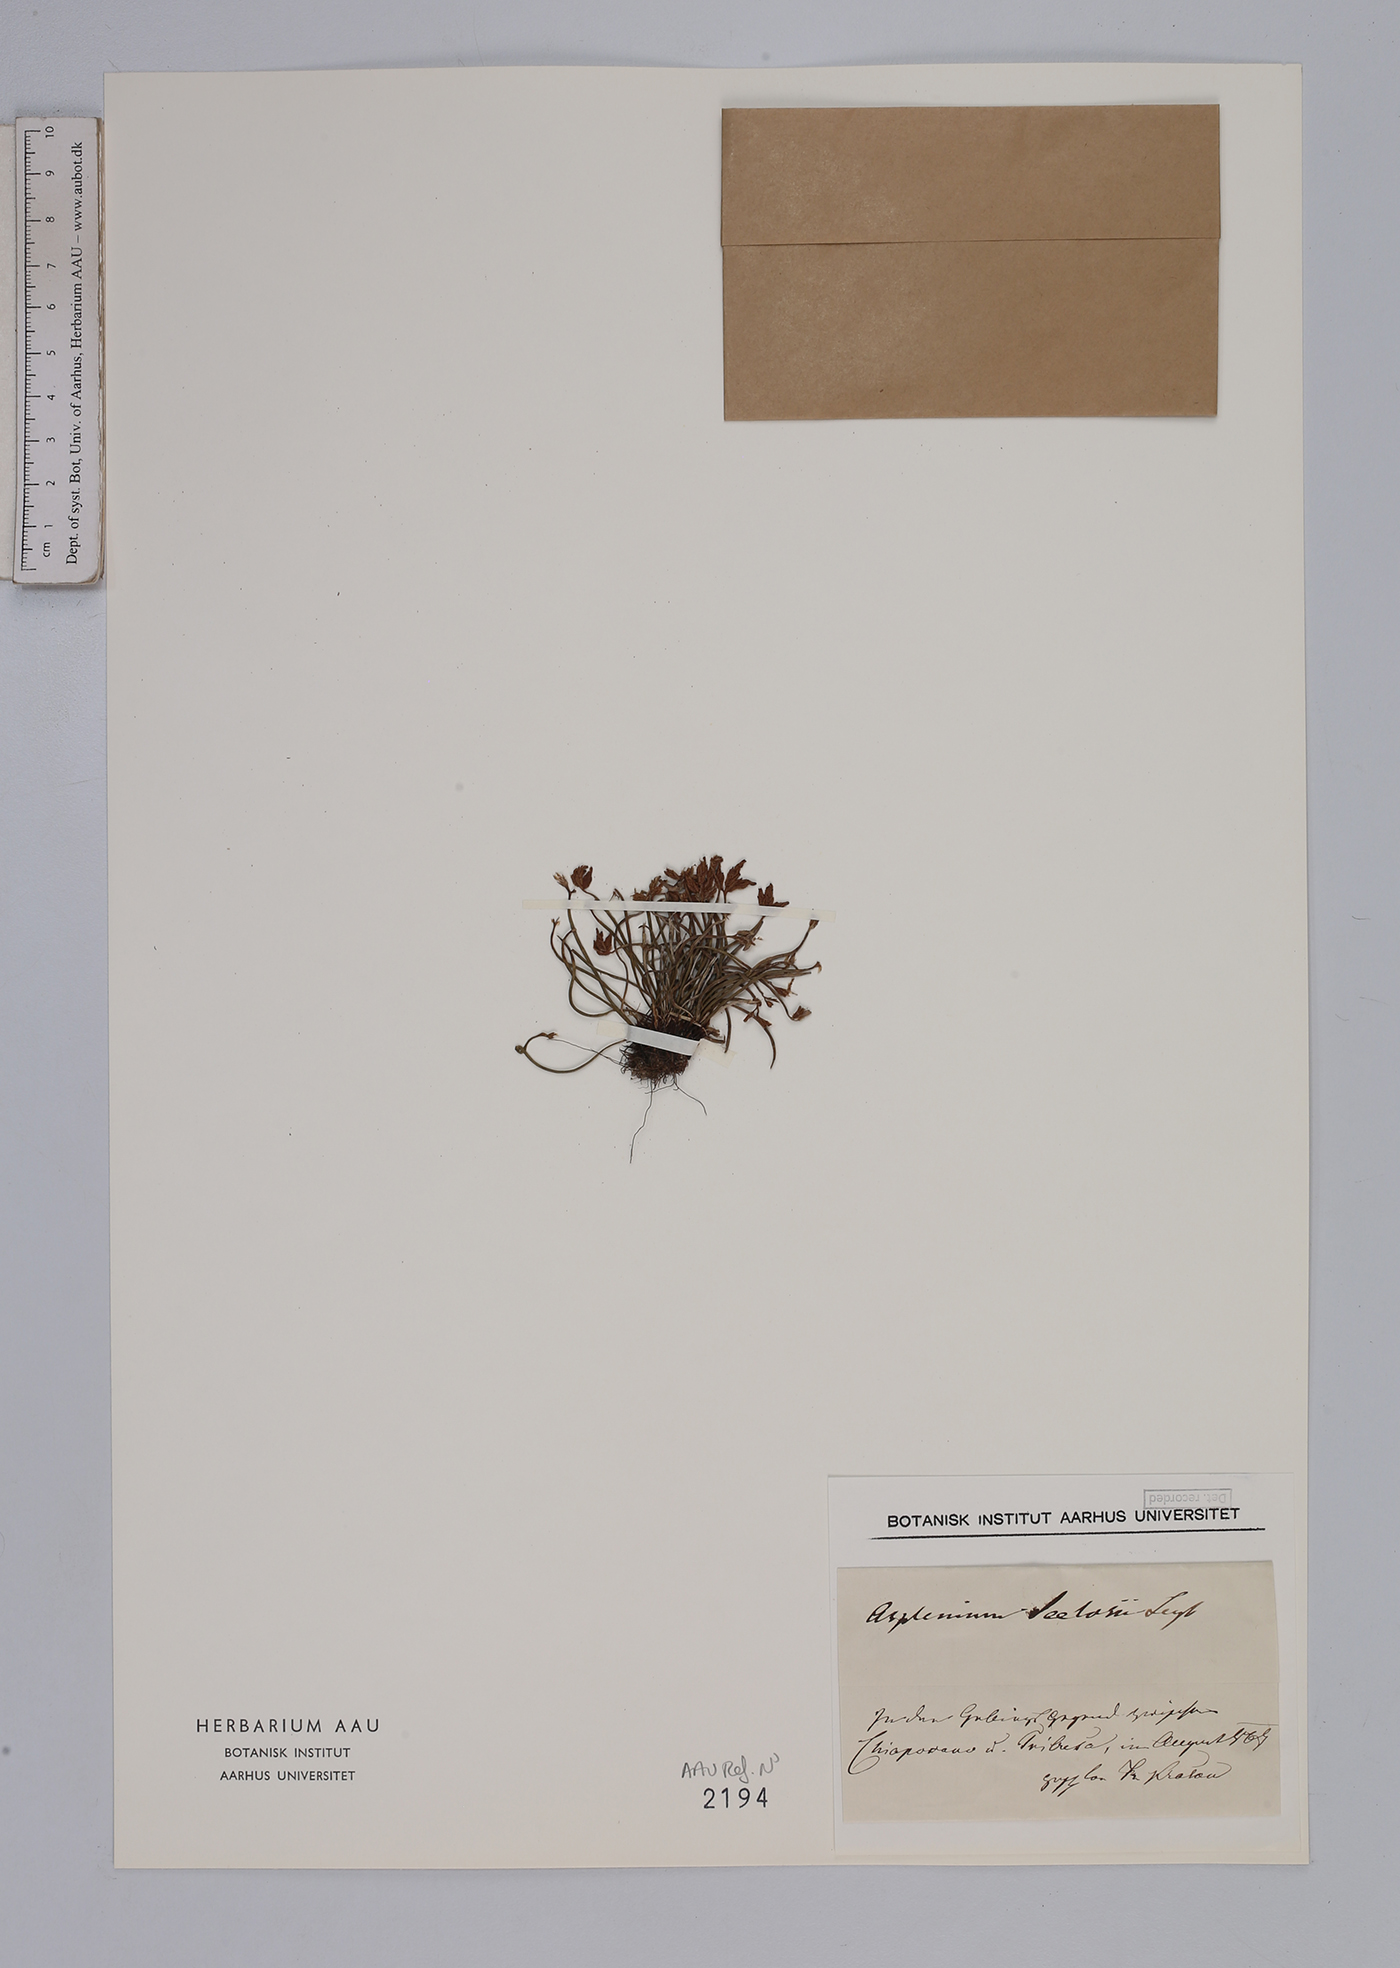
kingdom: Plantae
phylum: Tracheophyta
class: Polypodiopsida
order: Polypodiales
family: Aspleniaceae
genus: Asplenium
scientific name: Asplenium seelosii
